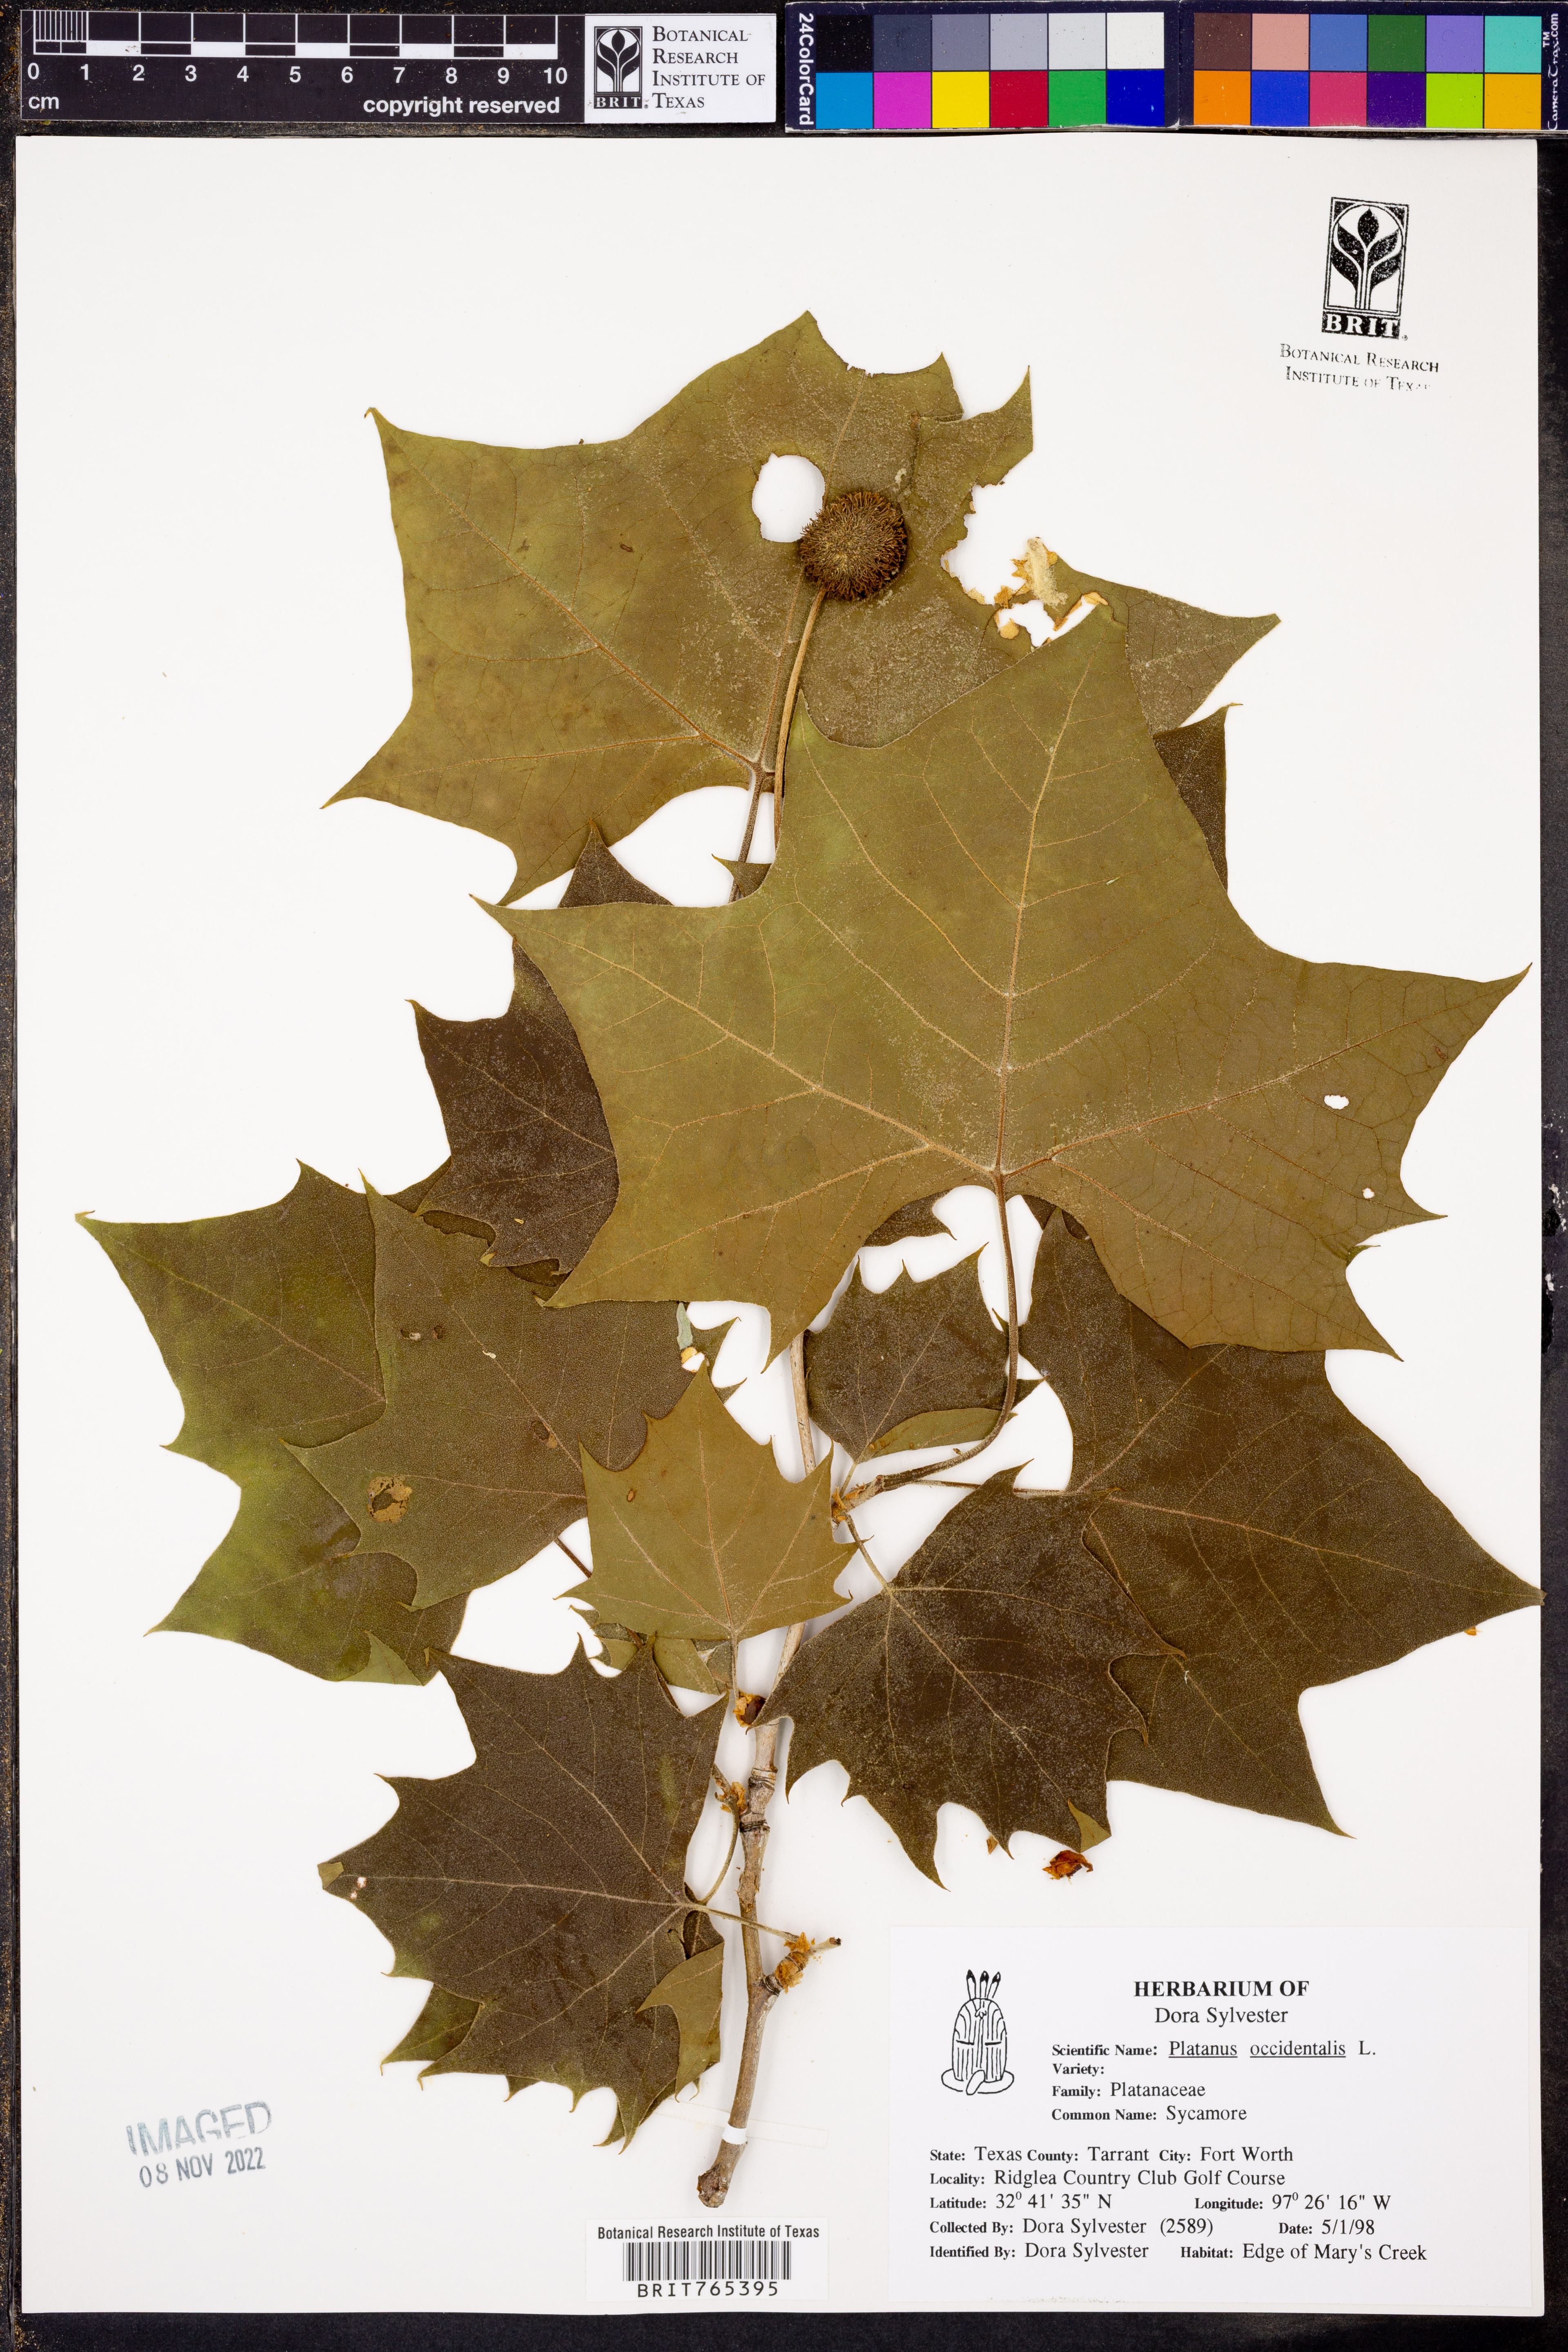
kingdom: Plantae
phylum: Tracheophyta
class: Magnoliopsida
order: Proteales
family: Platanaceae
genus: Platanus
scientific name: Platanus occidentalis
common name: American sycamore
